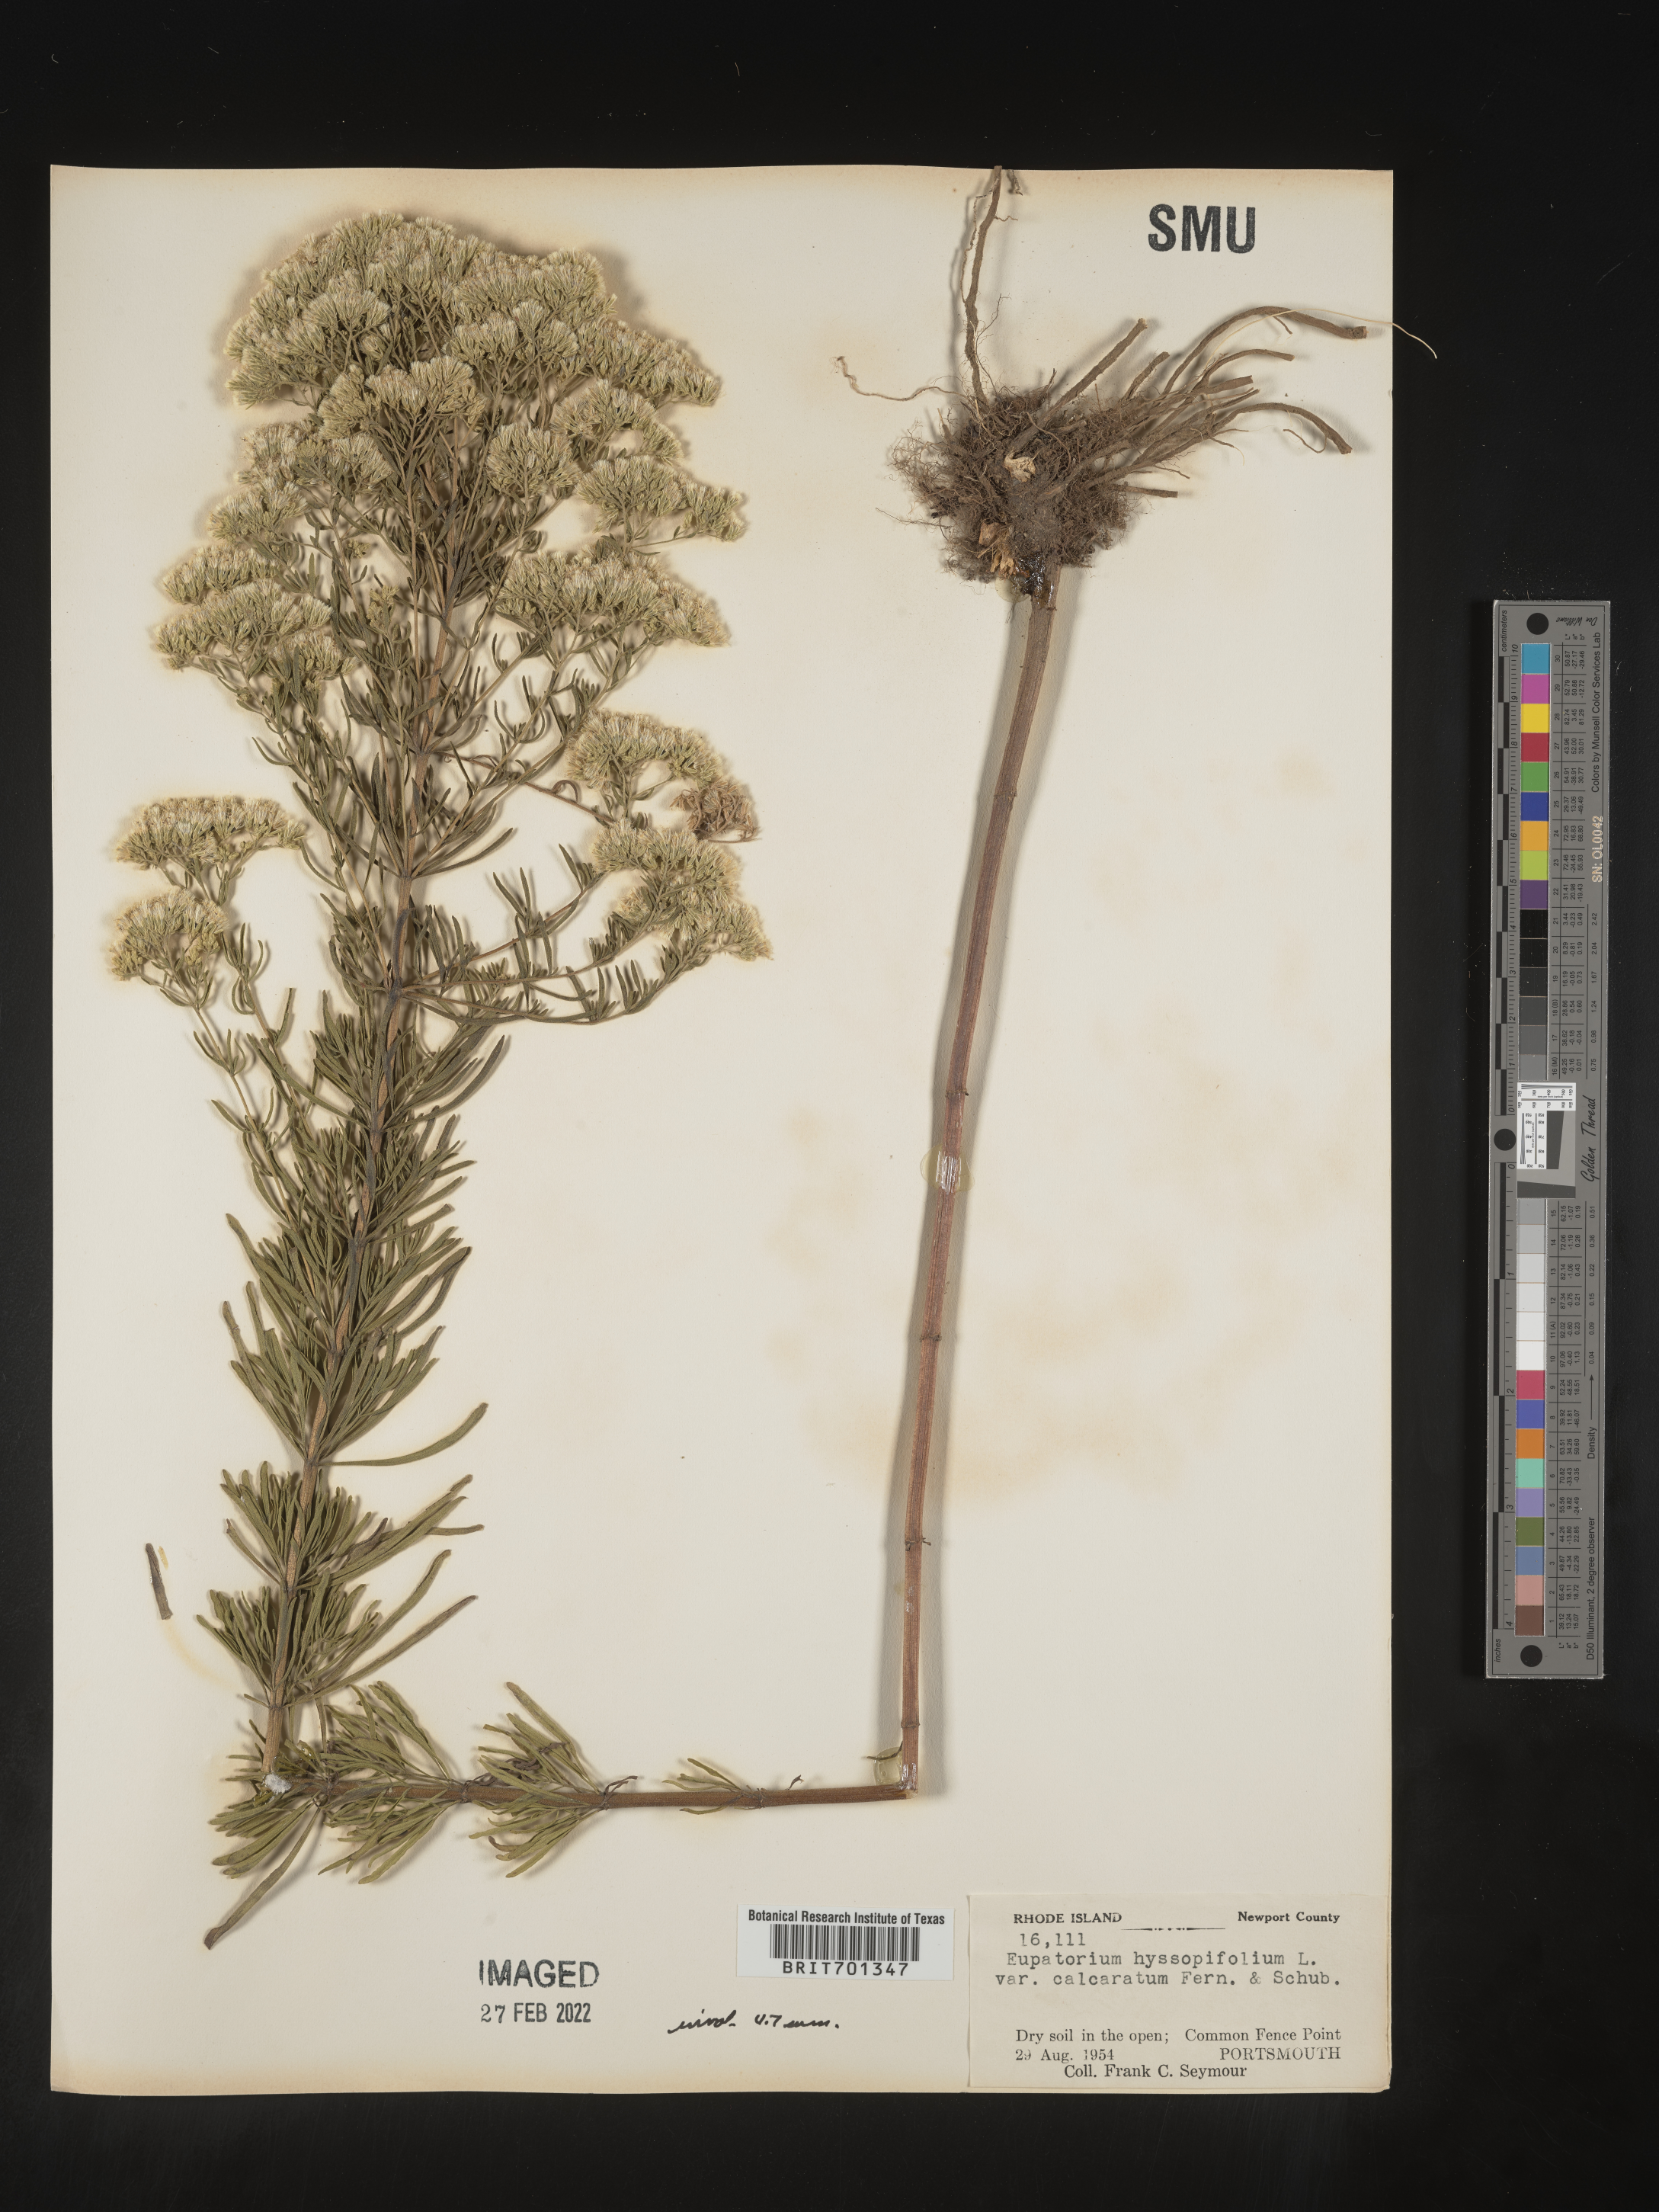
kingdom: Plantae
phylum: Tracheophyta
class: Magnoliopsida
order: Asterales
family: Asteraceae
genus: Eupatorium
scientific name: Eupatorium hyssopifolium
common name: Hyssop-leaf thoroughwort
